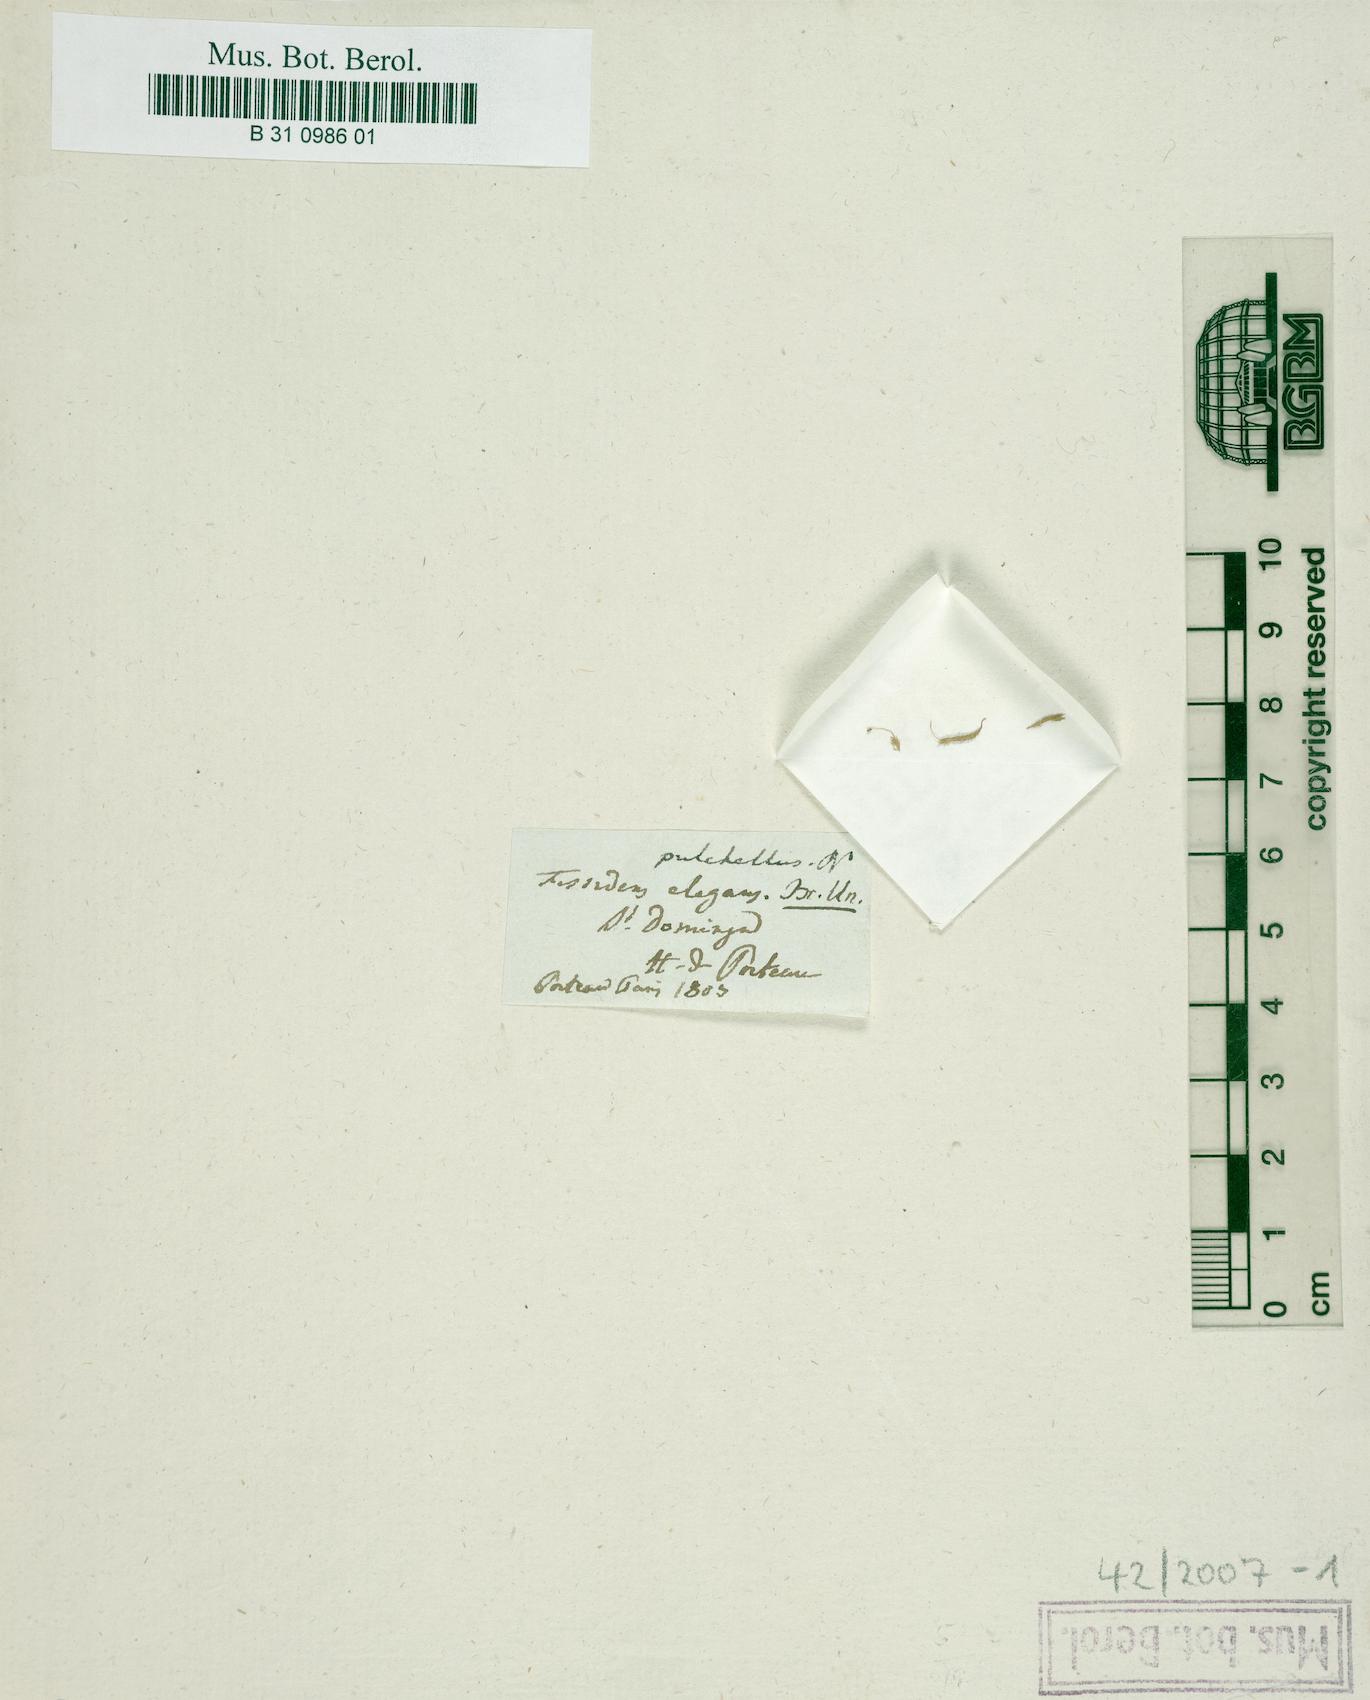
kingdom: Plantae
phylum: Bryophyta
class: Bryopsida
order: Dicranales
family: Fissidentaceae
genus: Fissidens
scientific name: Fissidens elegans
